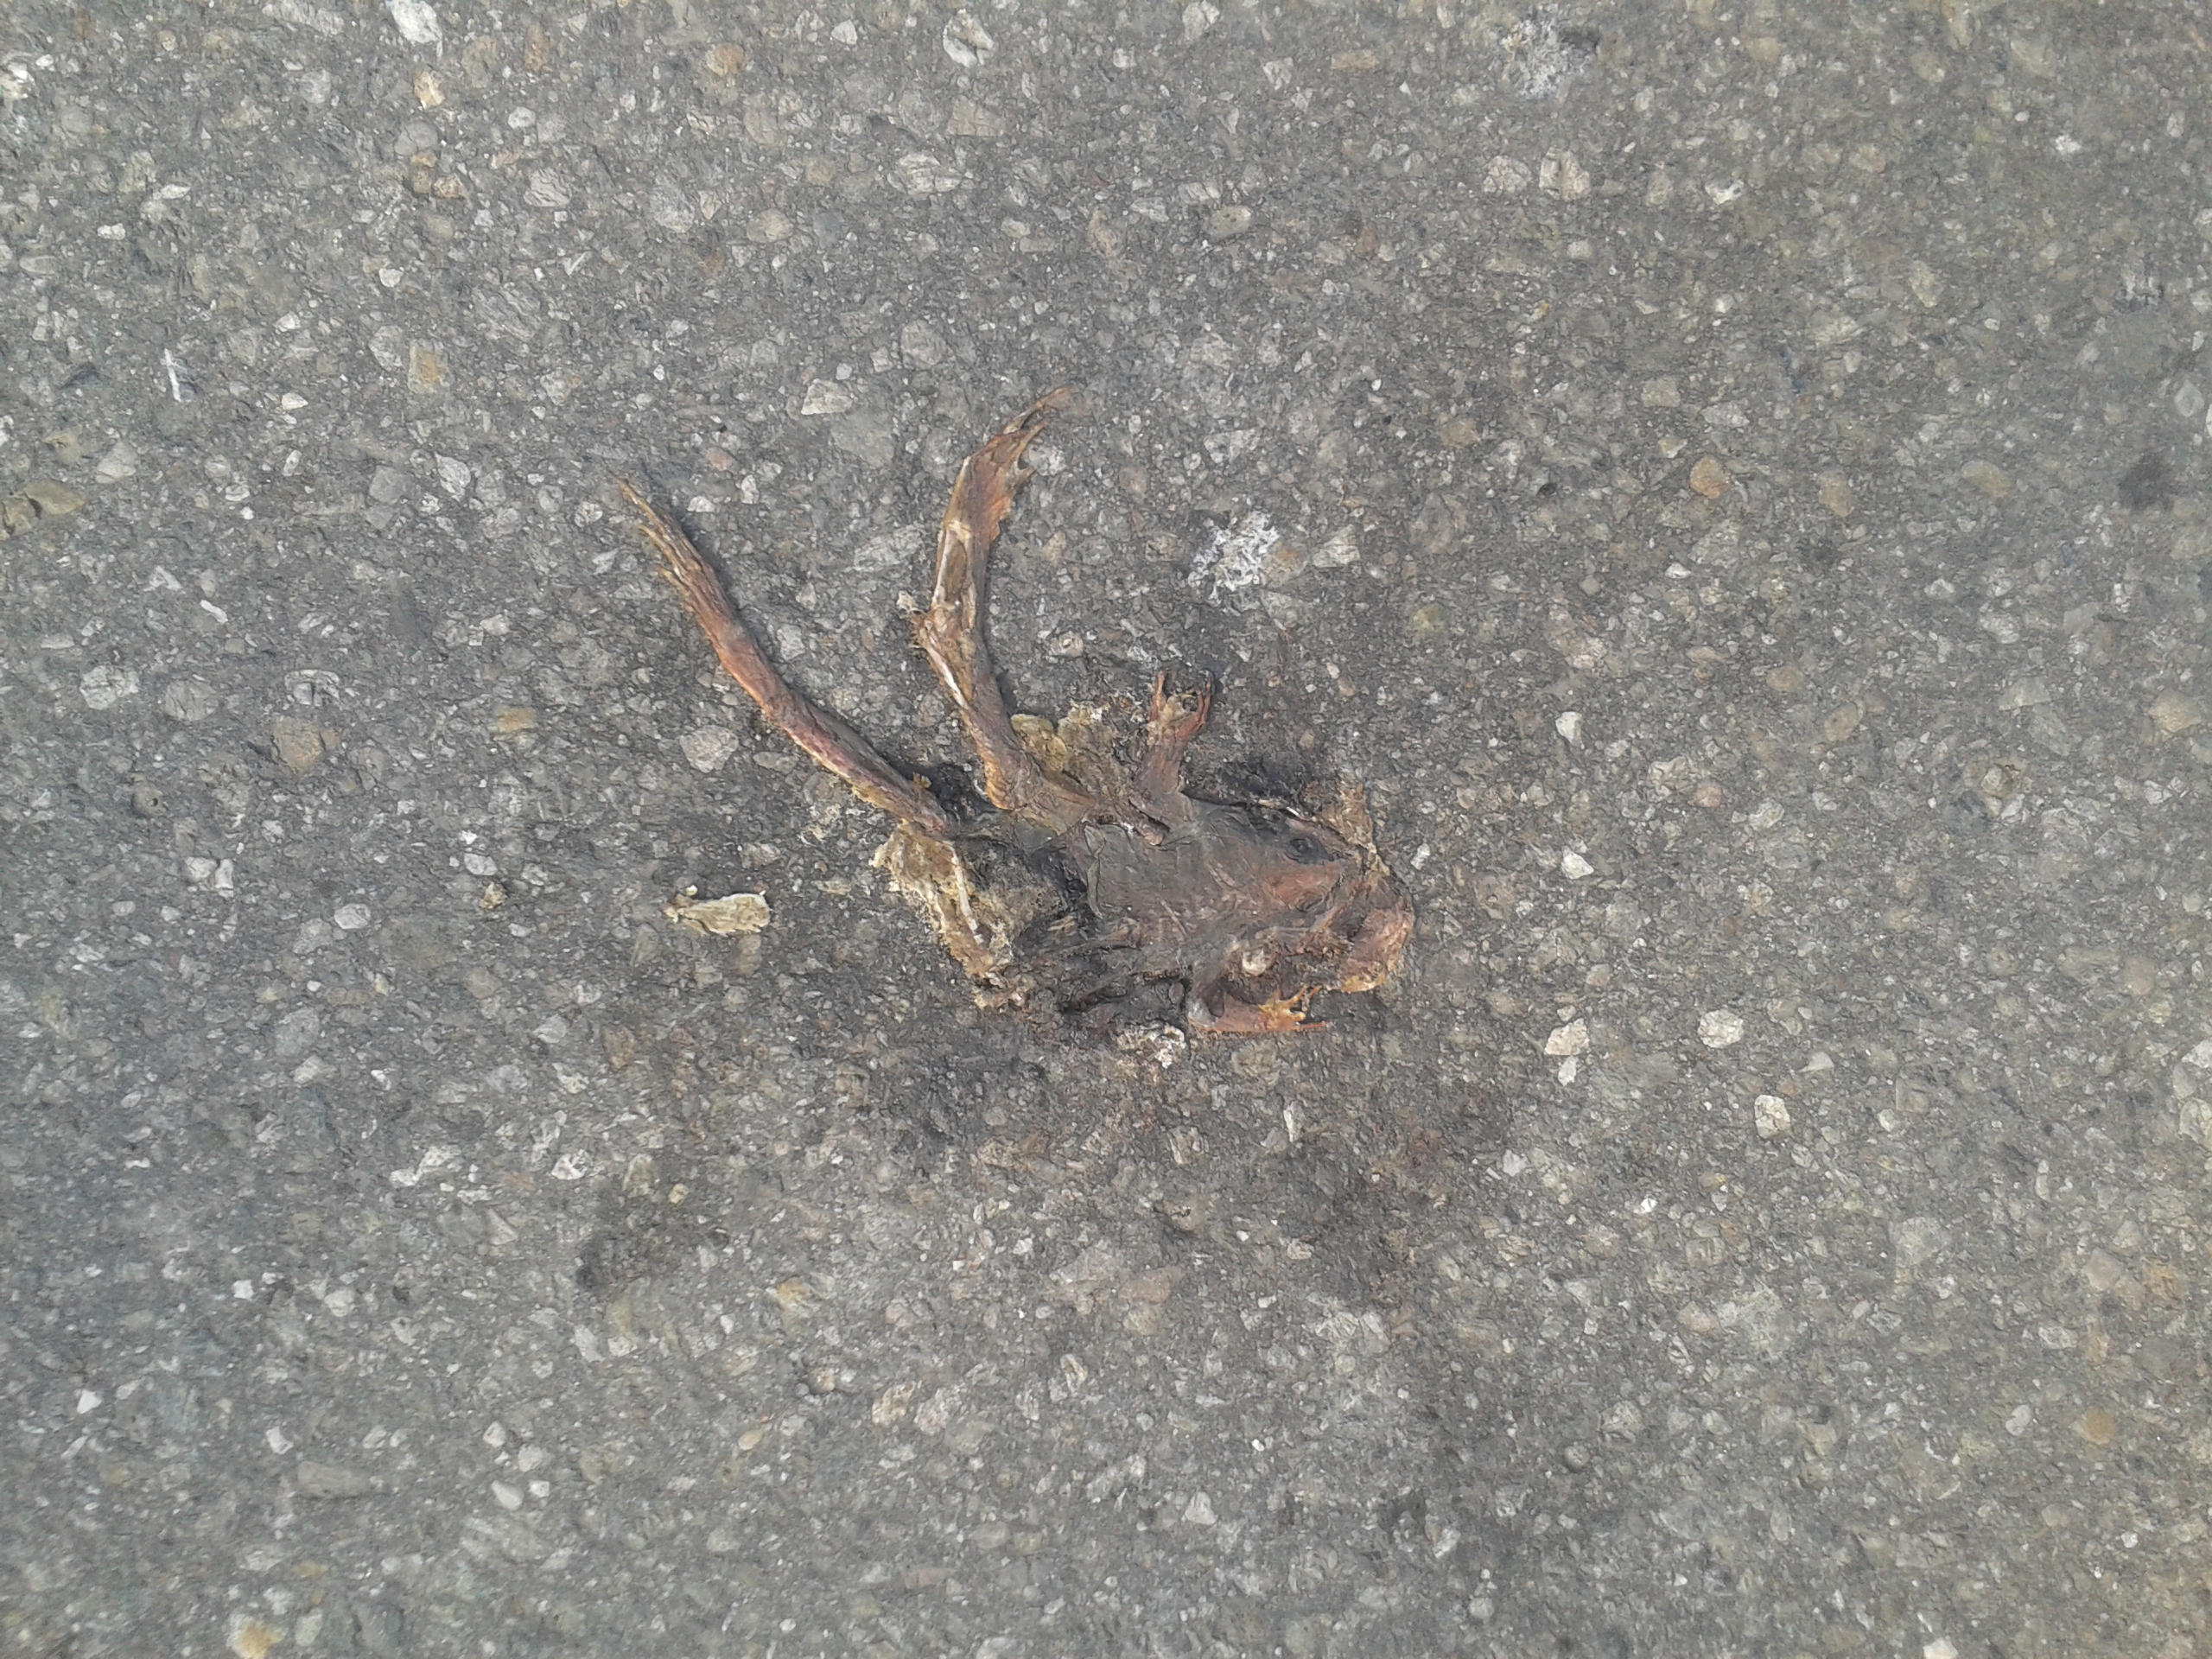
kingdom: Animalia
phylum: Chordata
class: Amphibia
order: Anura
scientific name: Anura
